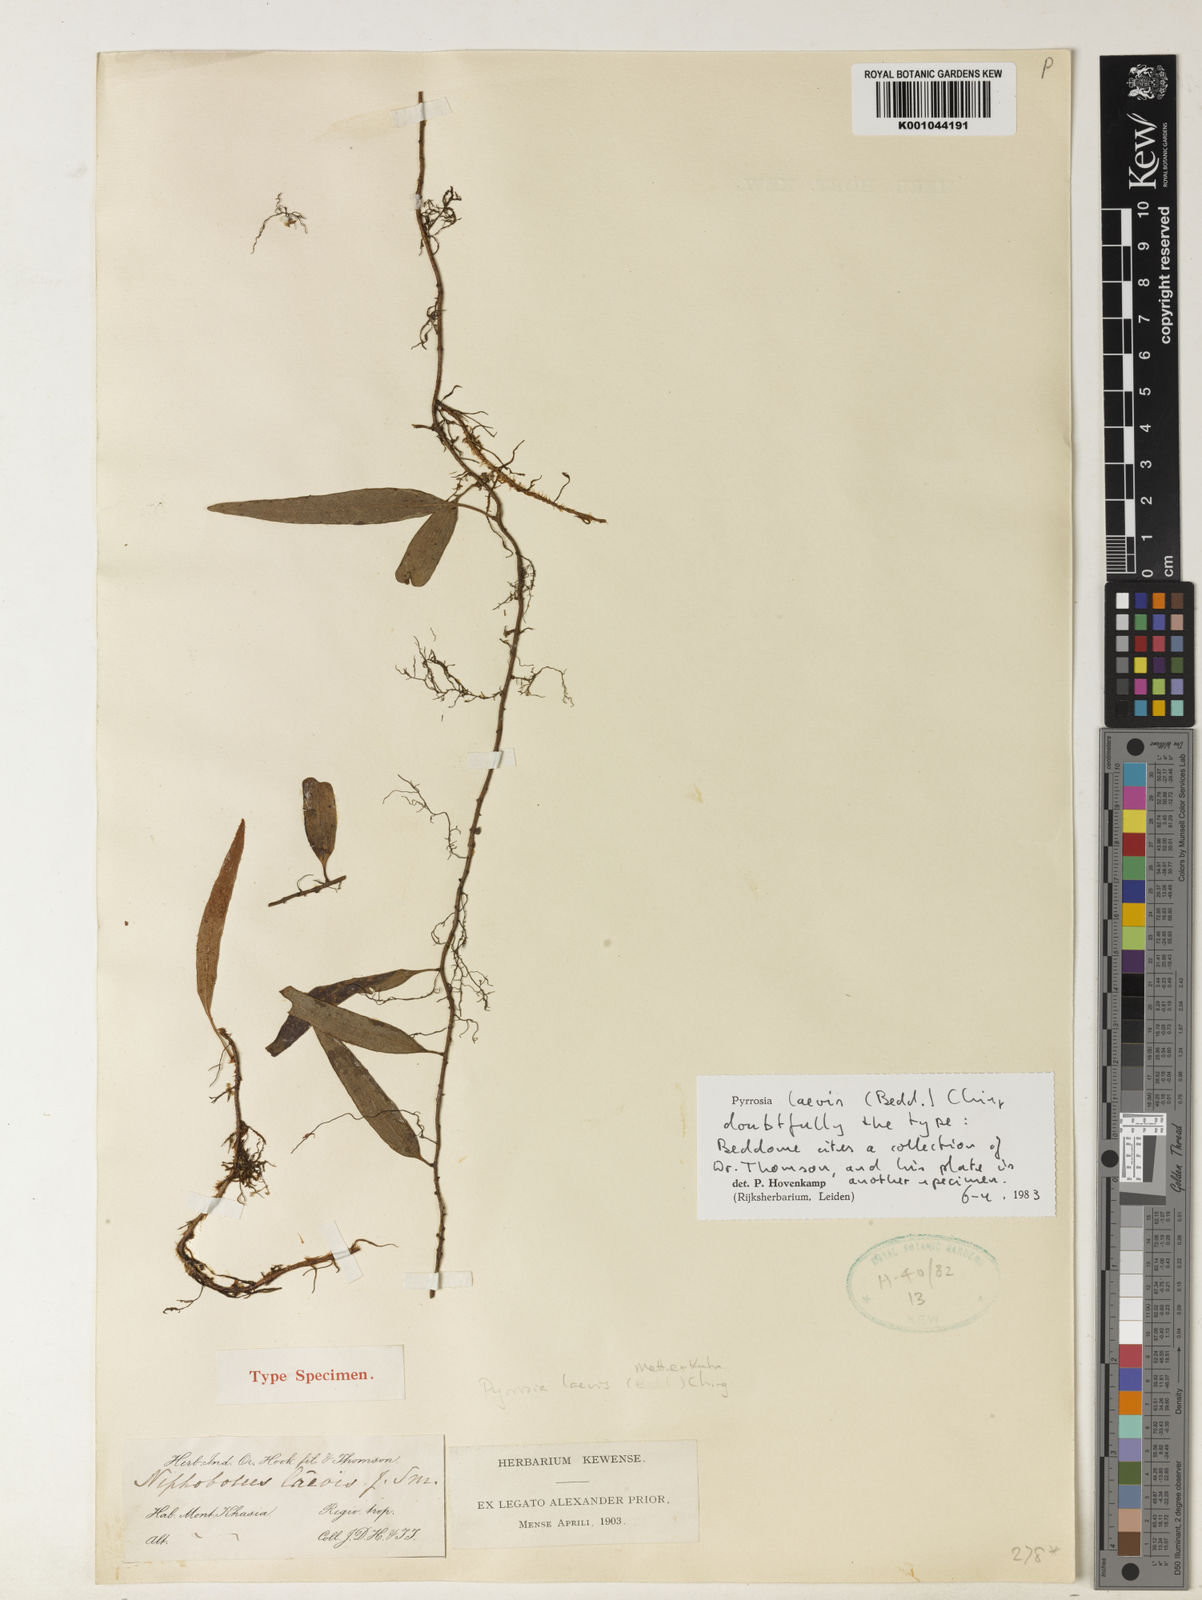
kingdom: Plantae
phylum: Tracheophyta
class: Polypodiopsida
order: Polypodiales
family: Polypodiaceae
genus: Pyrrosia
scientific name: Pyrrosia laevis
